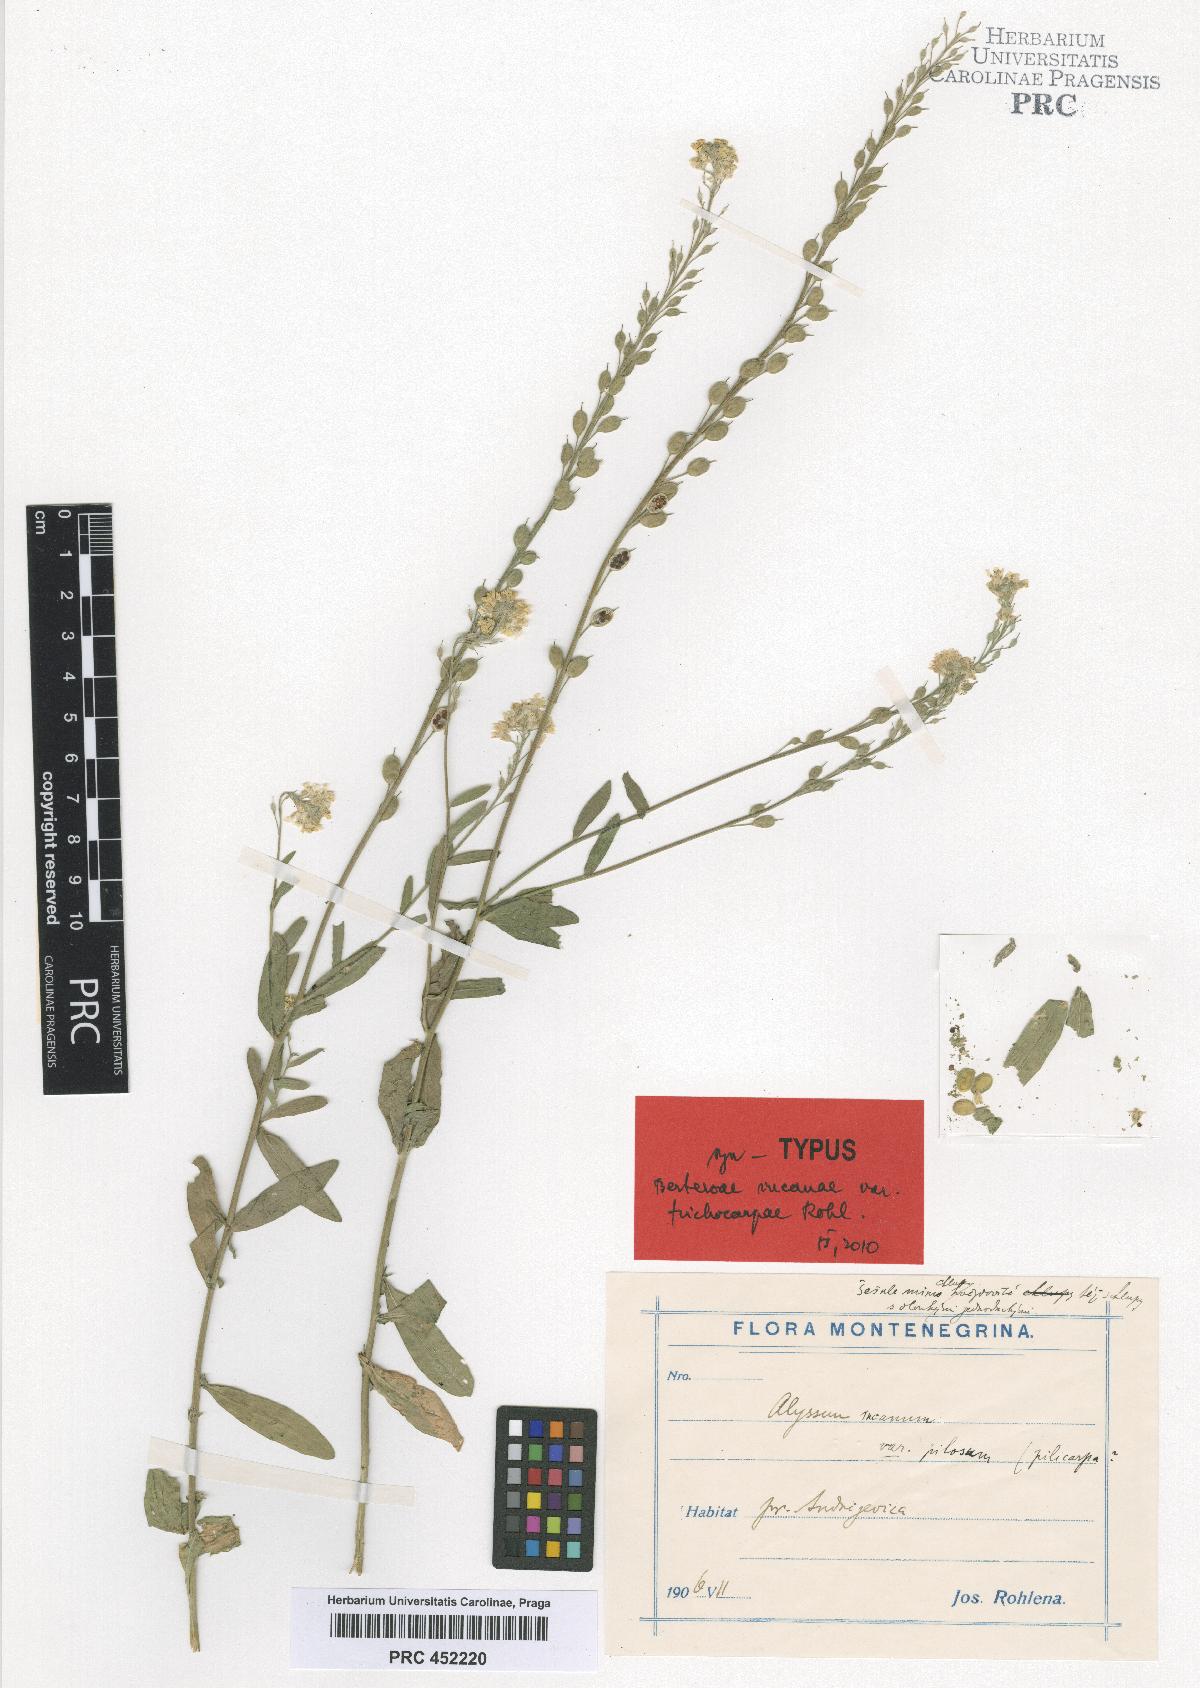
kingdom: Plantae
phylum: Tracheophyta
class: Magnoliopsida
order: Brassicales
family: Brassicaceae
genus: Berteroa
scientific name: Berteroa incana
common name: Hoary alison
